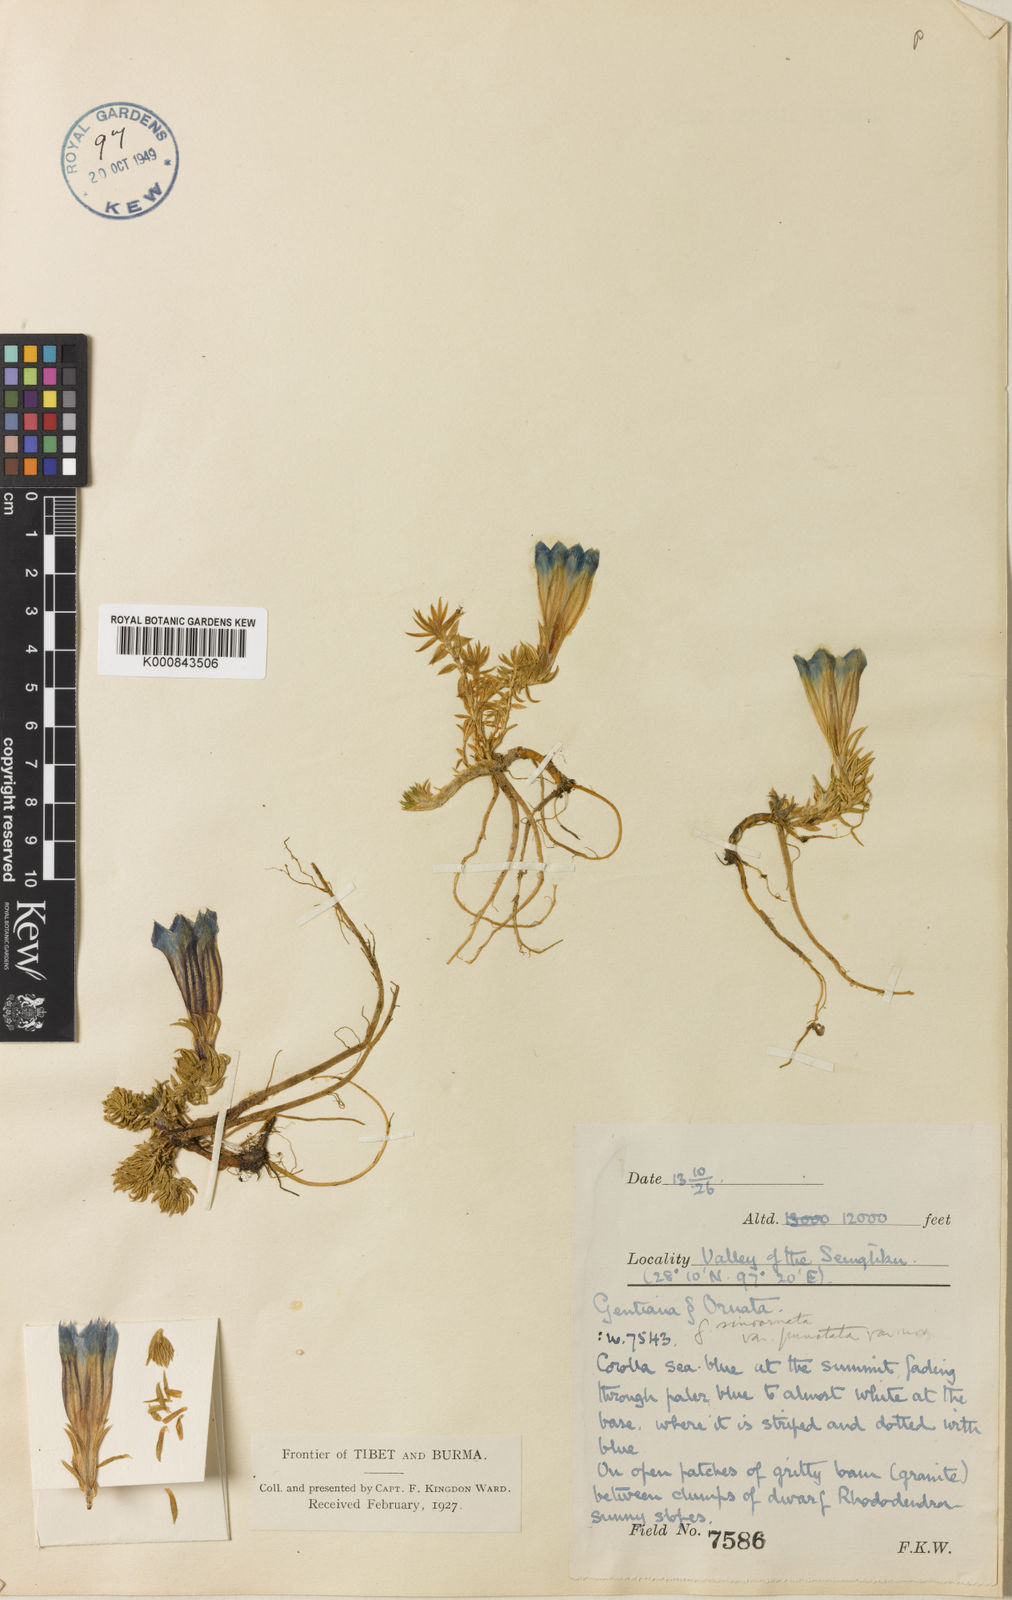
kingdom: Plantae
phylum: Tracheophyta
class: Magnoliopsida
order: Gentianales
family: Gentianaceae
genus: Gentiana
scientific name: Gentiana
